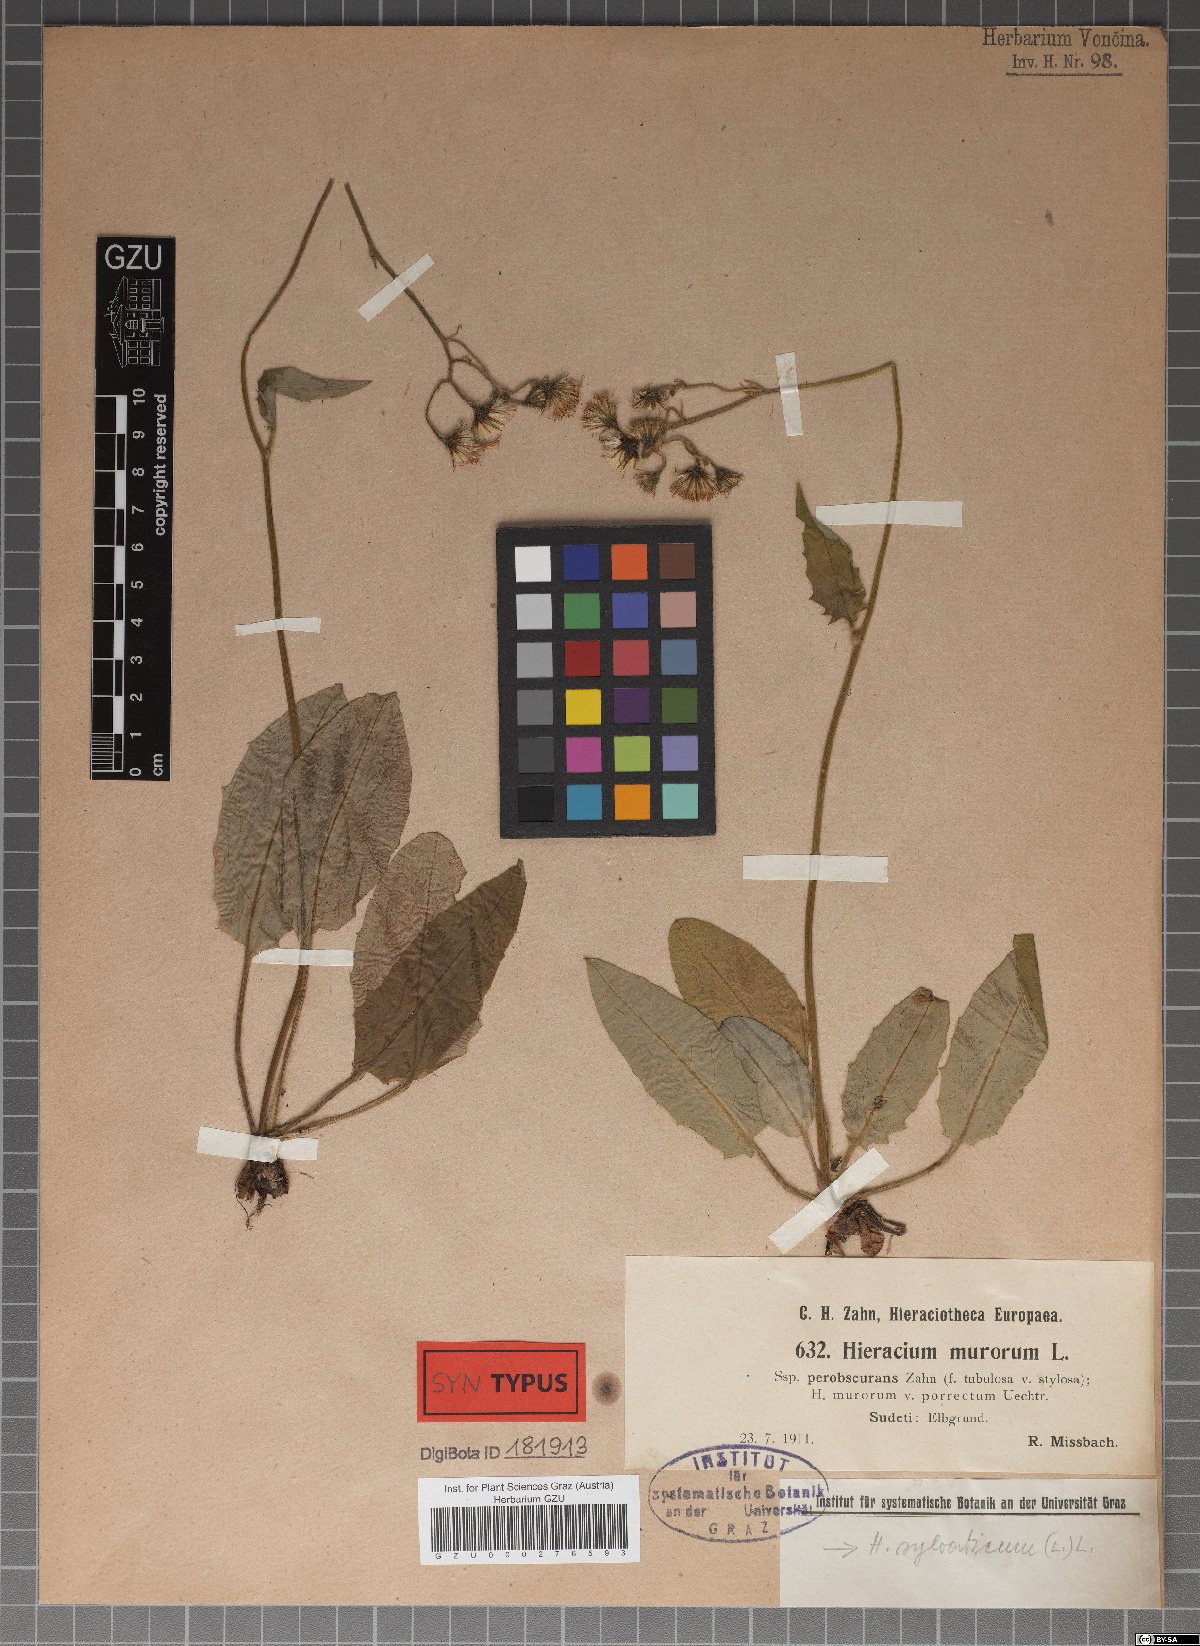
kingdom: Plantae
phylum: Tracheophyta
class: Magnoliopsida
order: Asterales
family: Asteraceae
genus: Hieracium
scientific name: Hieracium murorum
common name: Wall hawkweed
